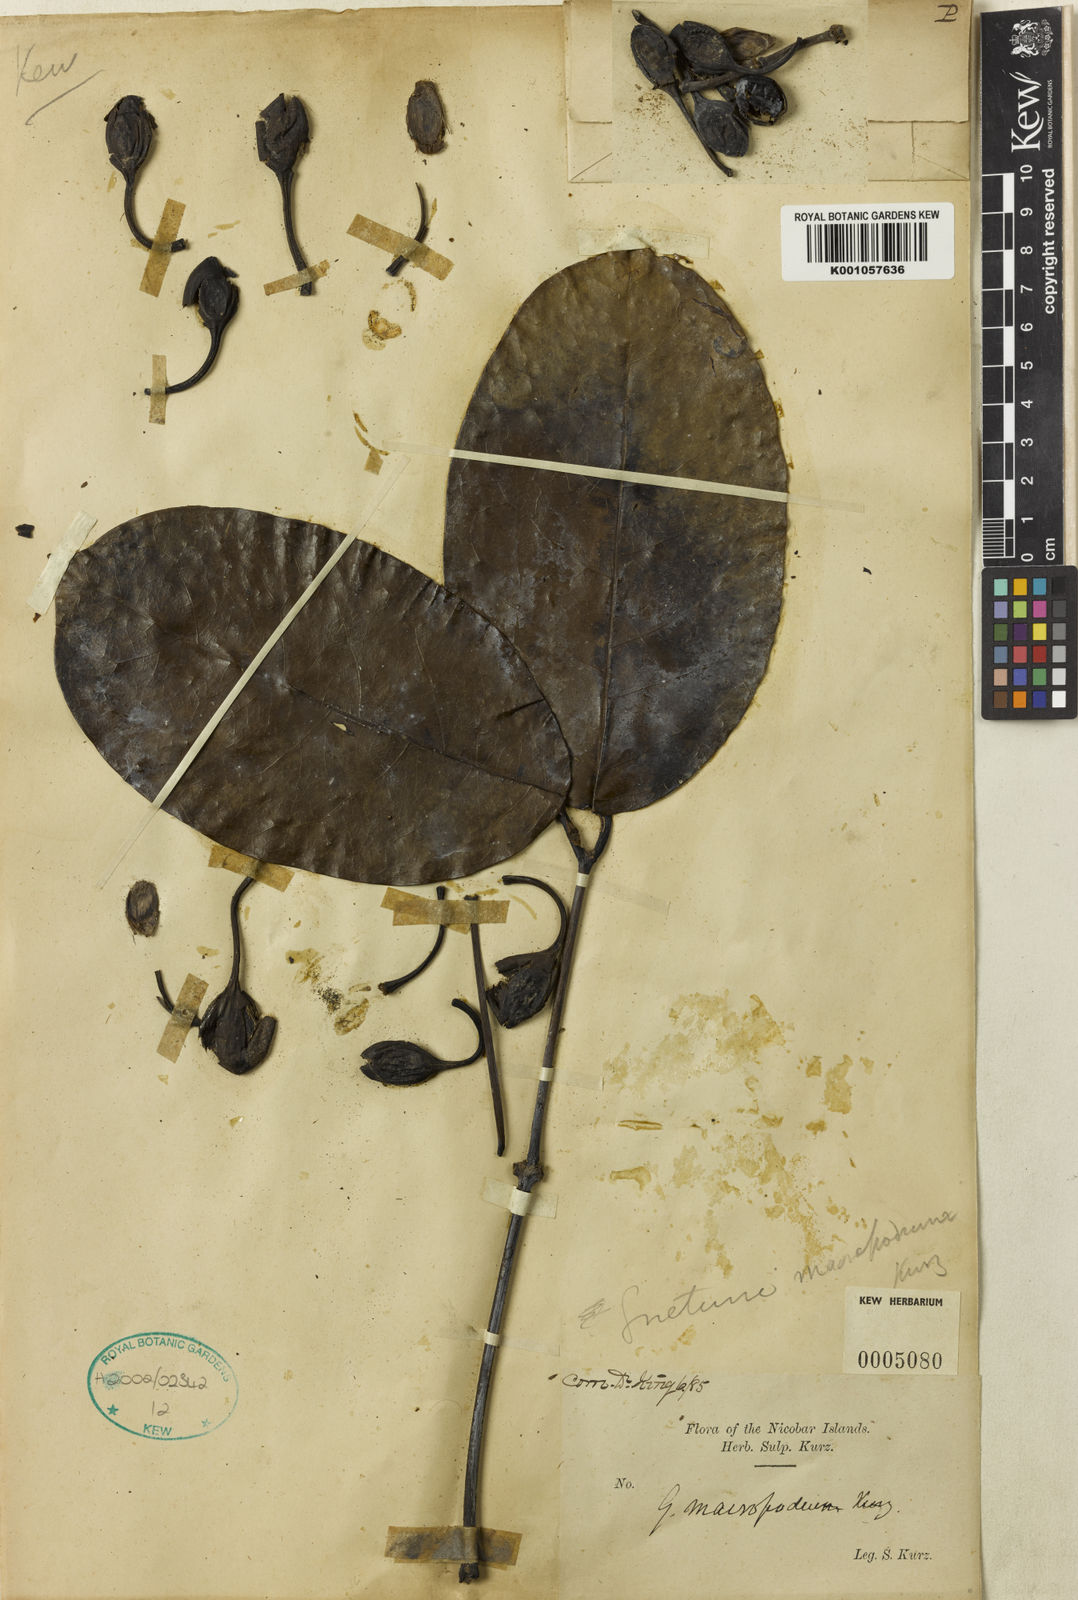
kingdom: Plantae
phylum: Tracheophyta
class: Gnetopsida
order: Gnetales
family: Gnetaceae
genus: Gnetum
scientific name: Gnetum latifolium
